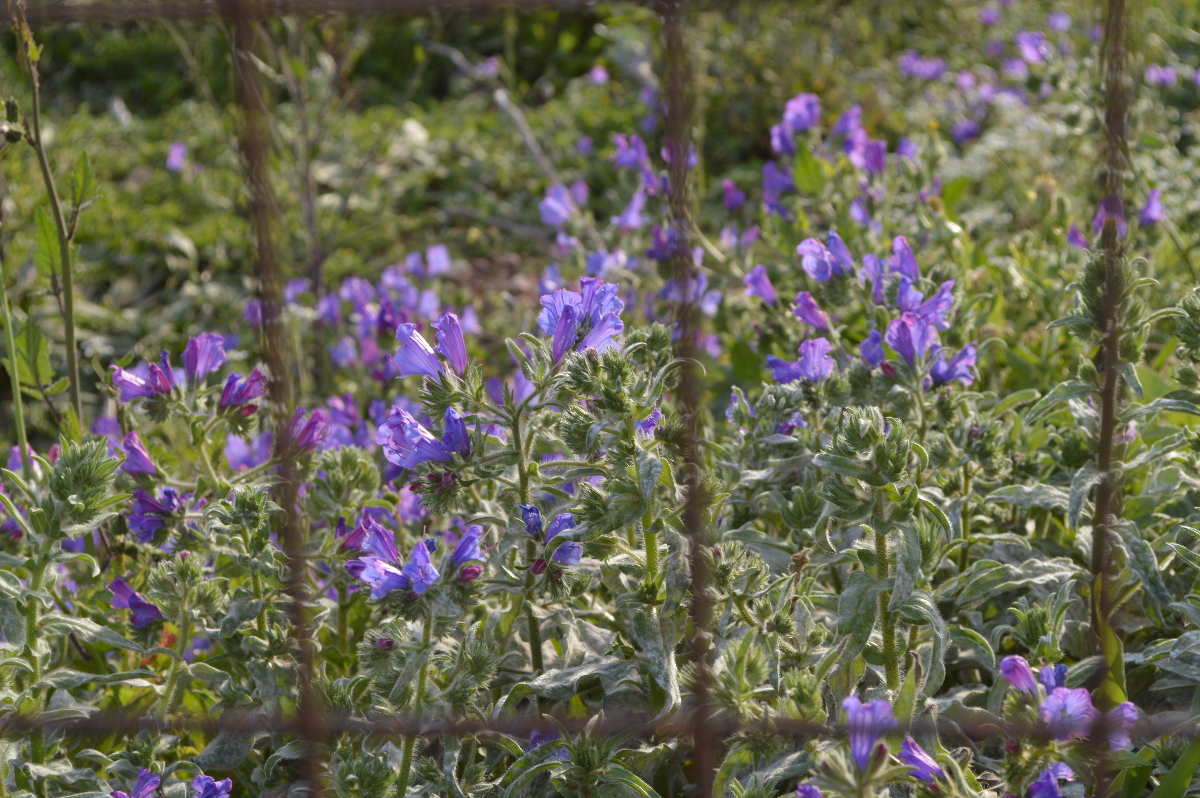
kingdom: Plantae
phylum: Tracheophyta
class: Magnoliopsida
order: Boraginales
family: Boraginaceae
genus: Echium
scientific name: Echium plantagineum
